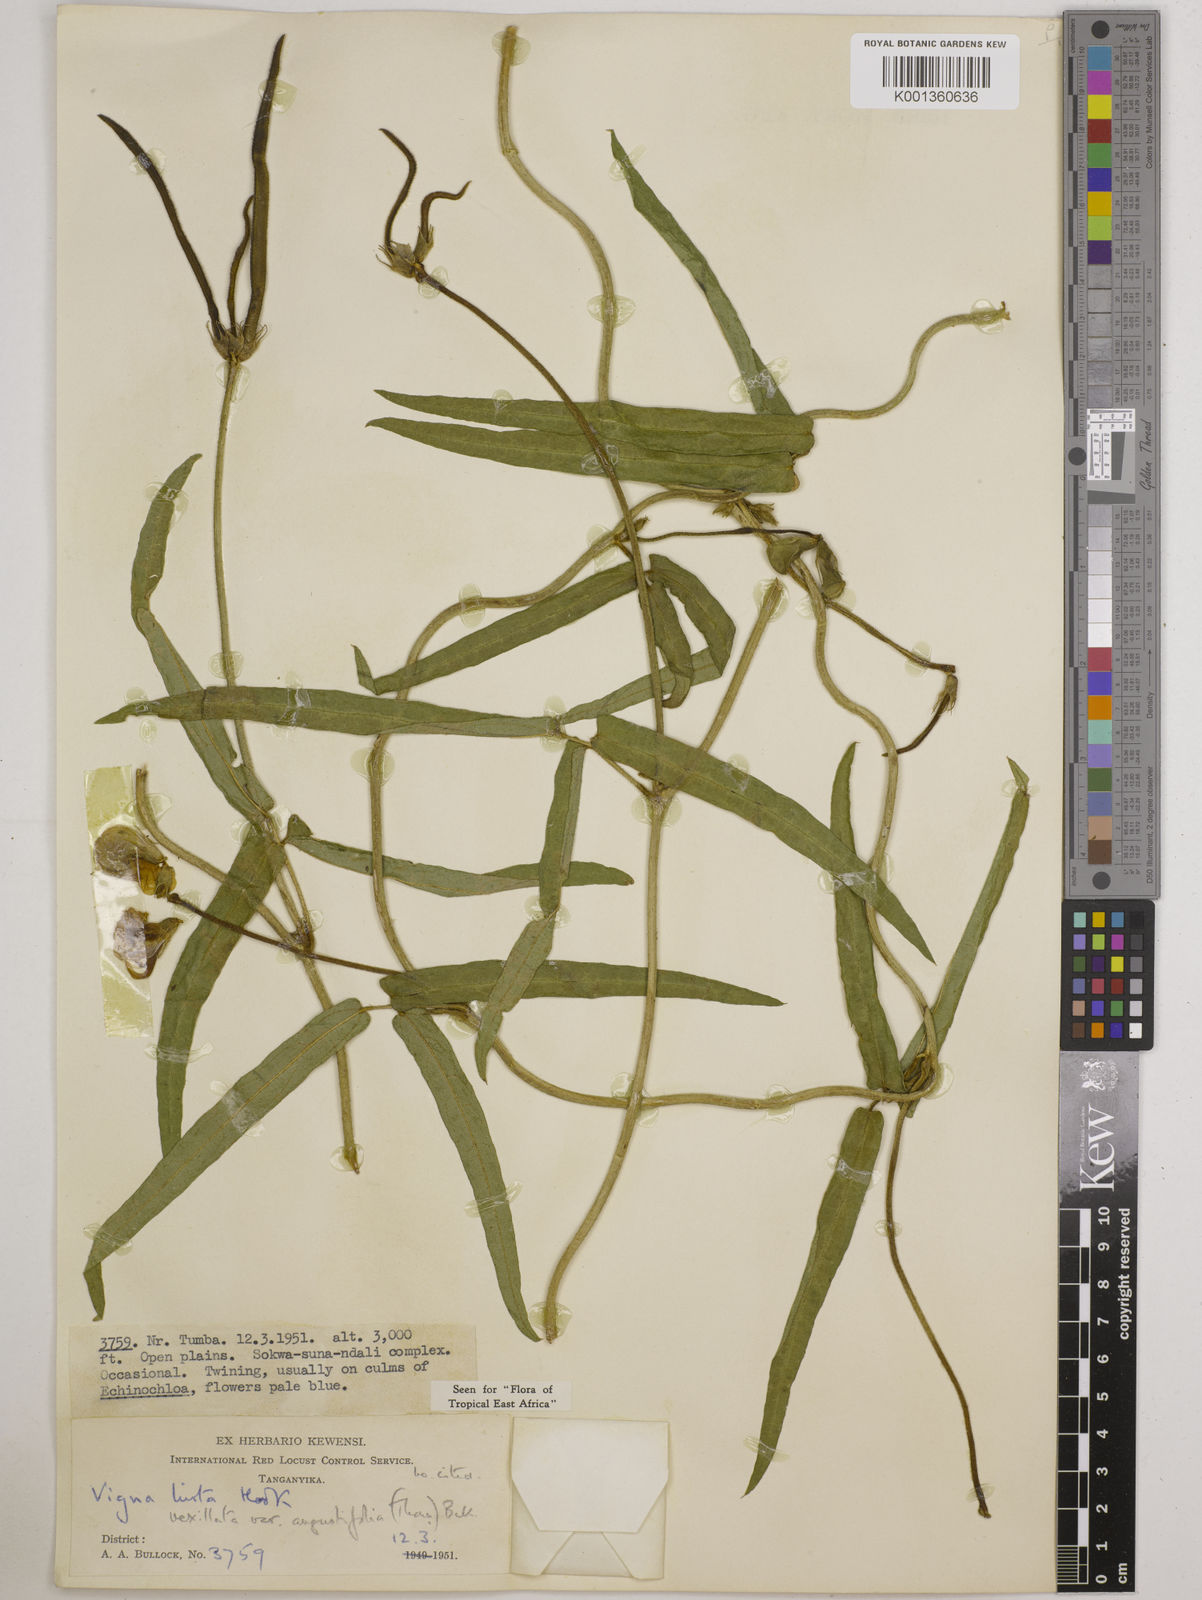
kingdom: Plantae
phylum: Tracheophyta
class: Magnoliopsida
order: Fabales
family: Fabaceae
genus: Vigna
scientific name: Vigna vexillata
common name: Zombi pea
